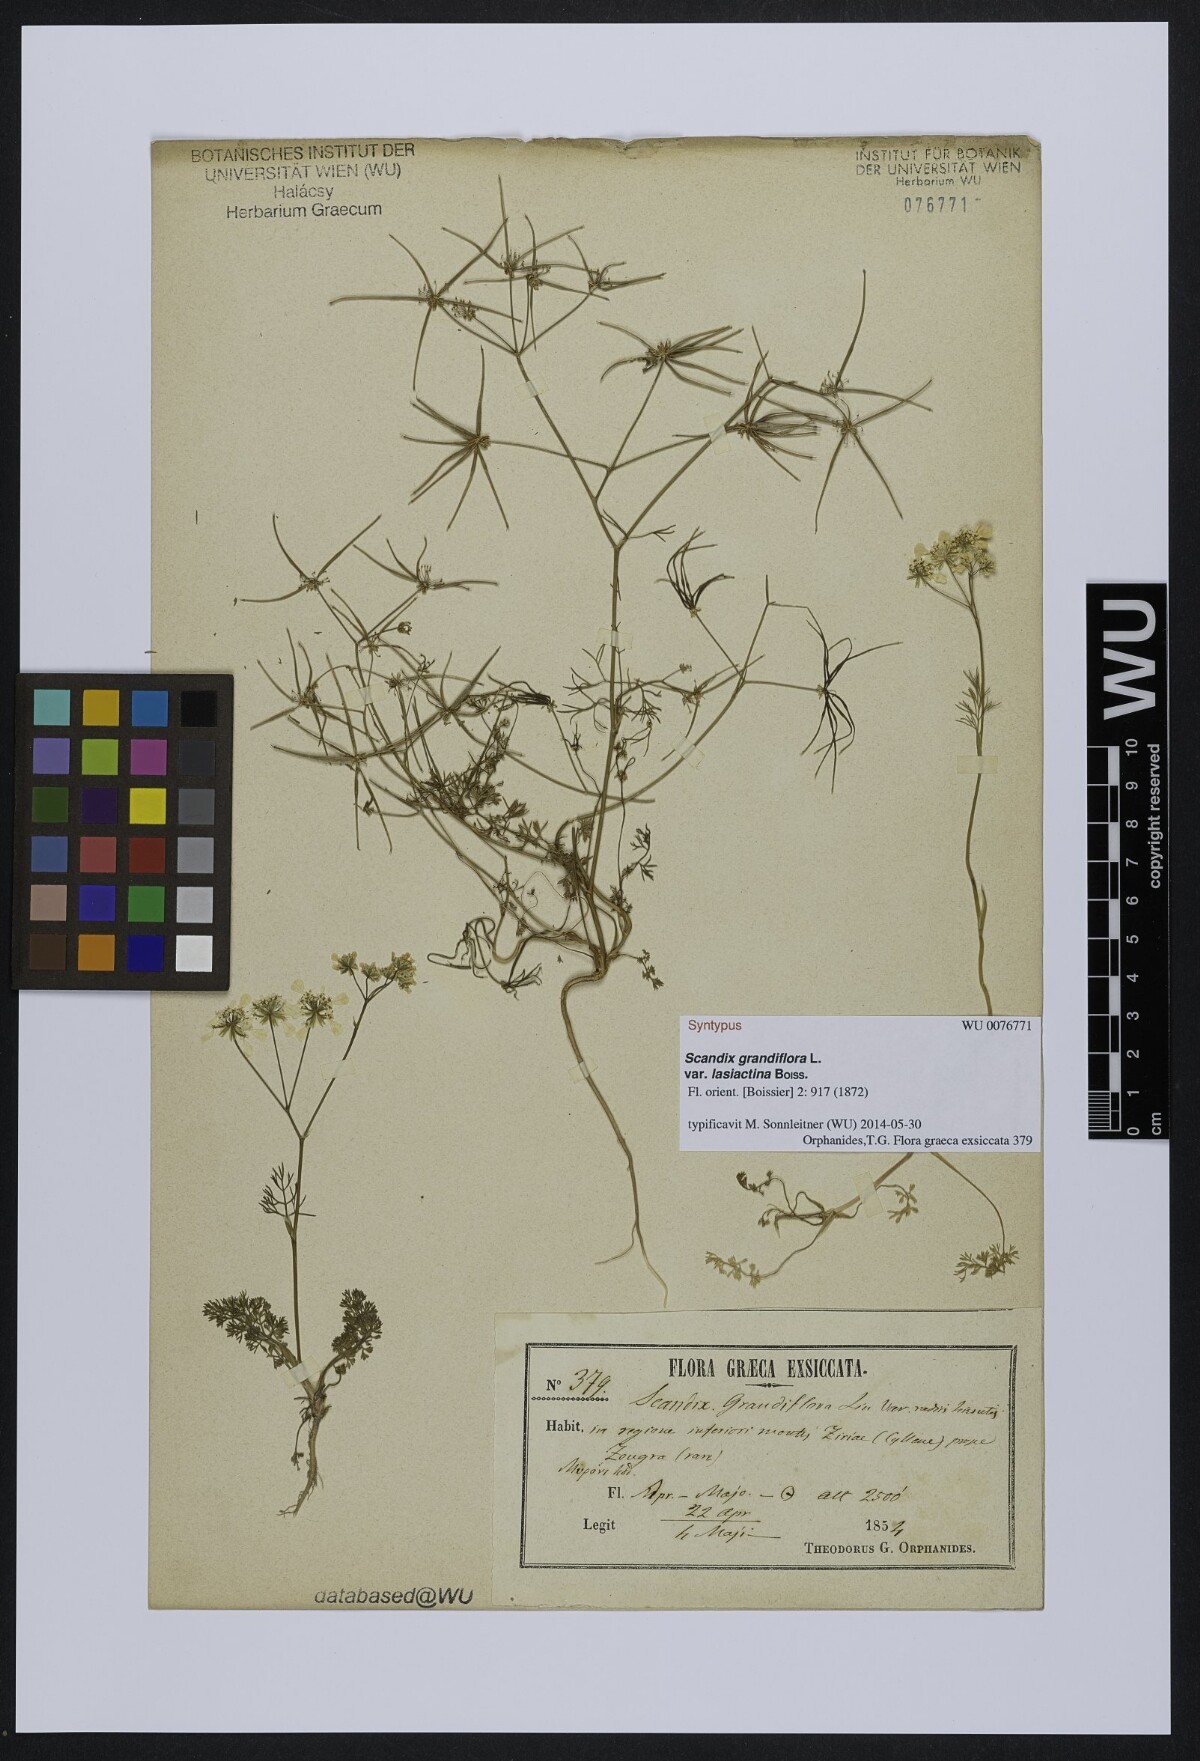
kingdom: Plantae
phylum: Tracheophyta
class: Magnoliopsida
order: Apiales
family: Apiaceae
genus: Scandix
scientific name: Scandix australis
